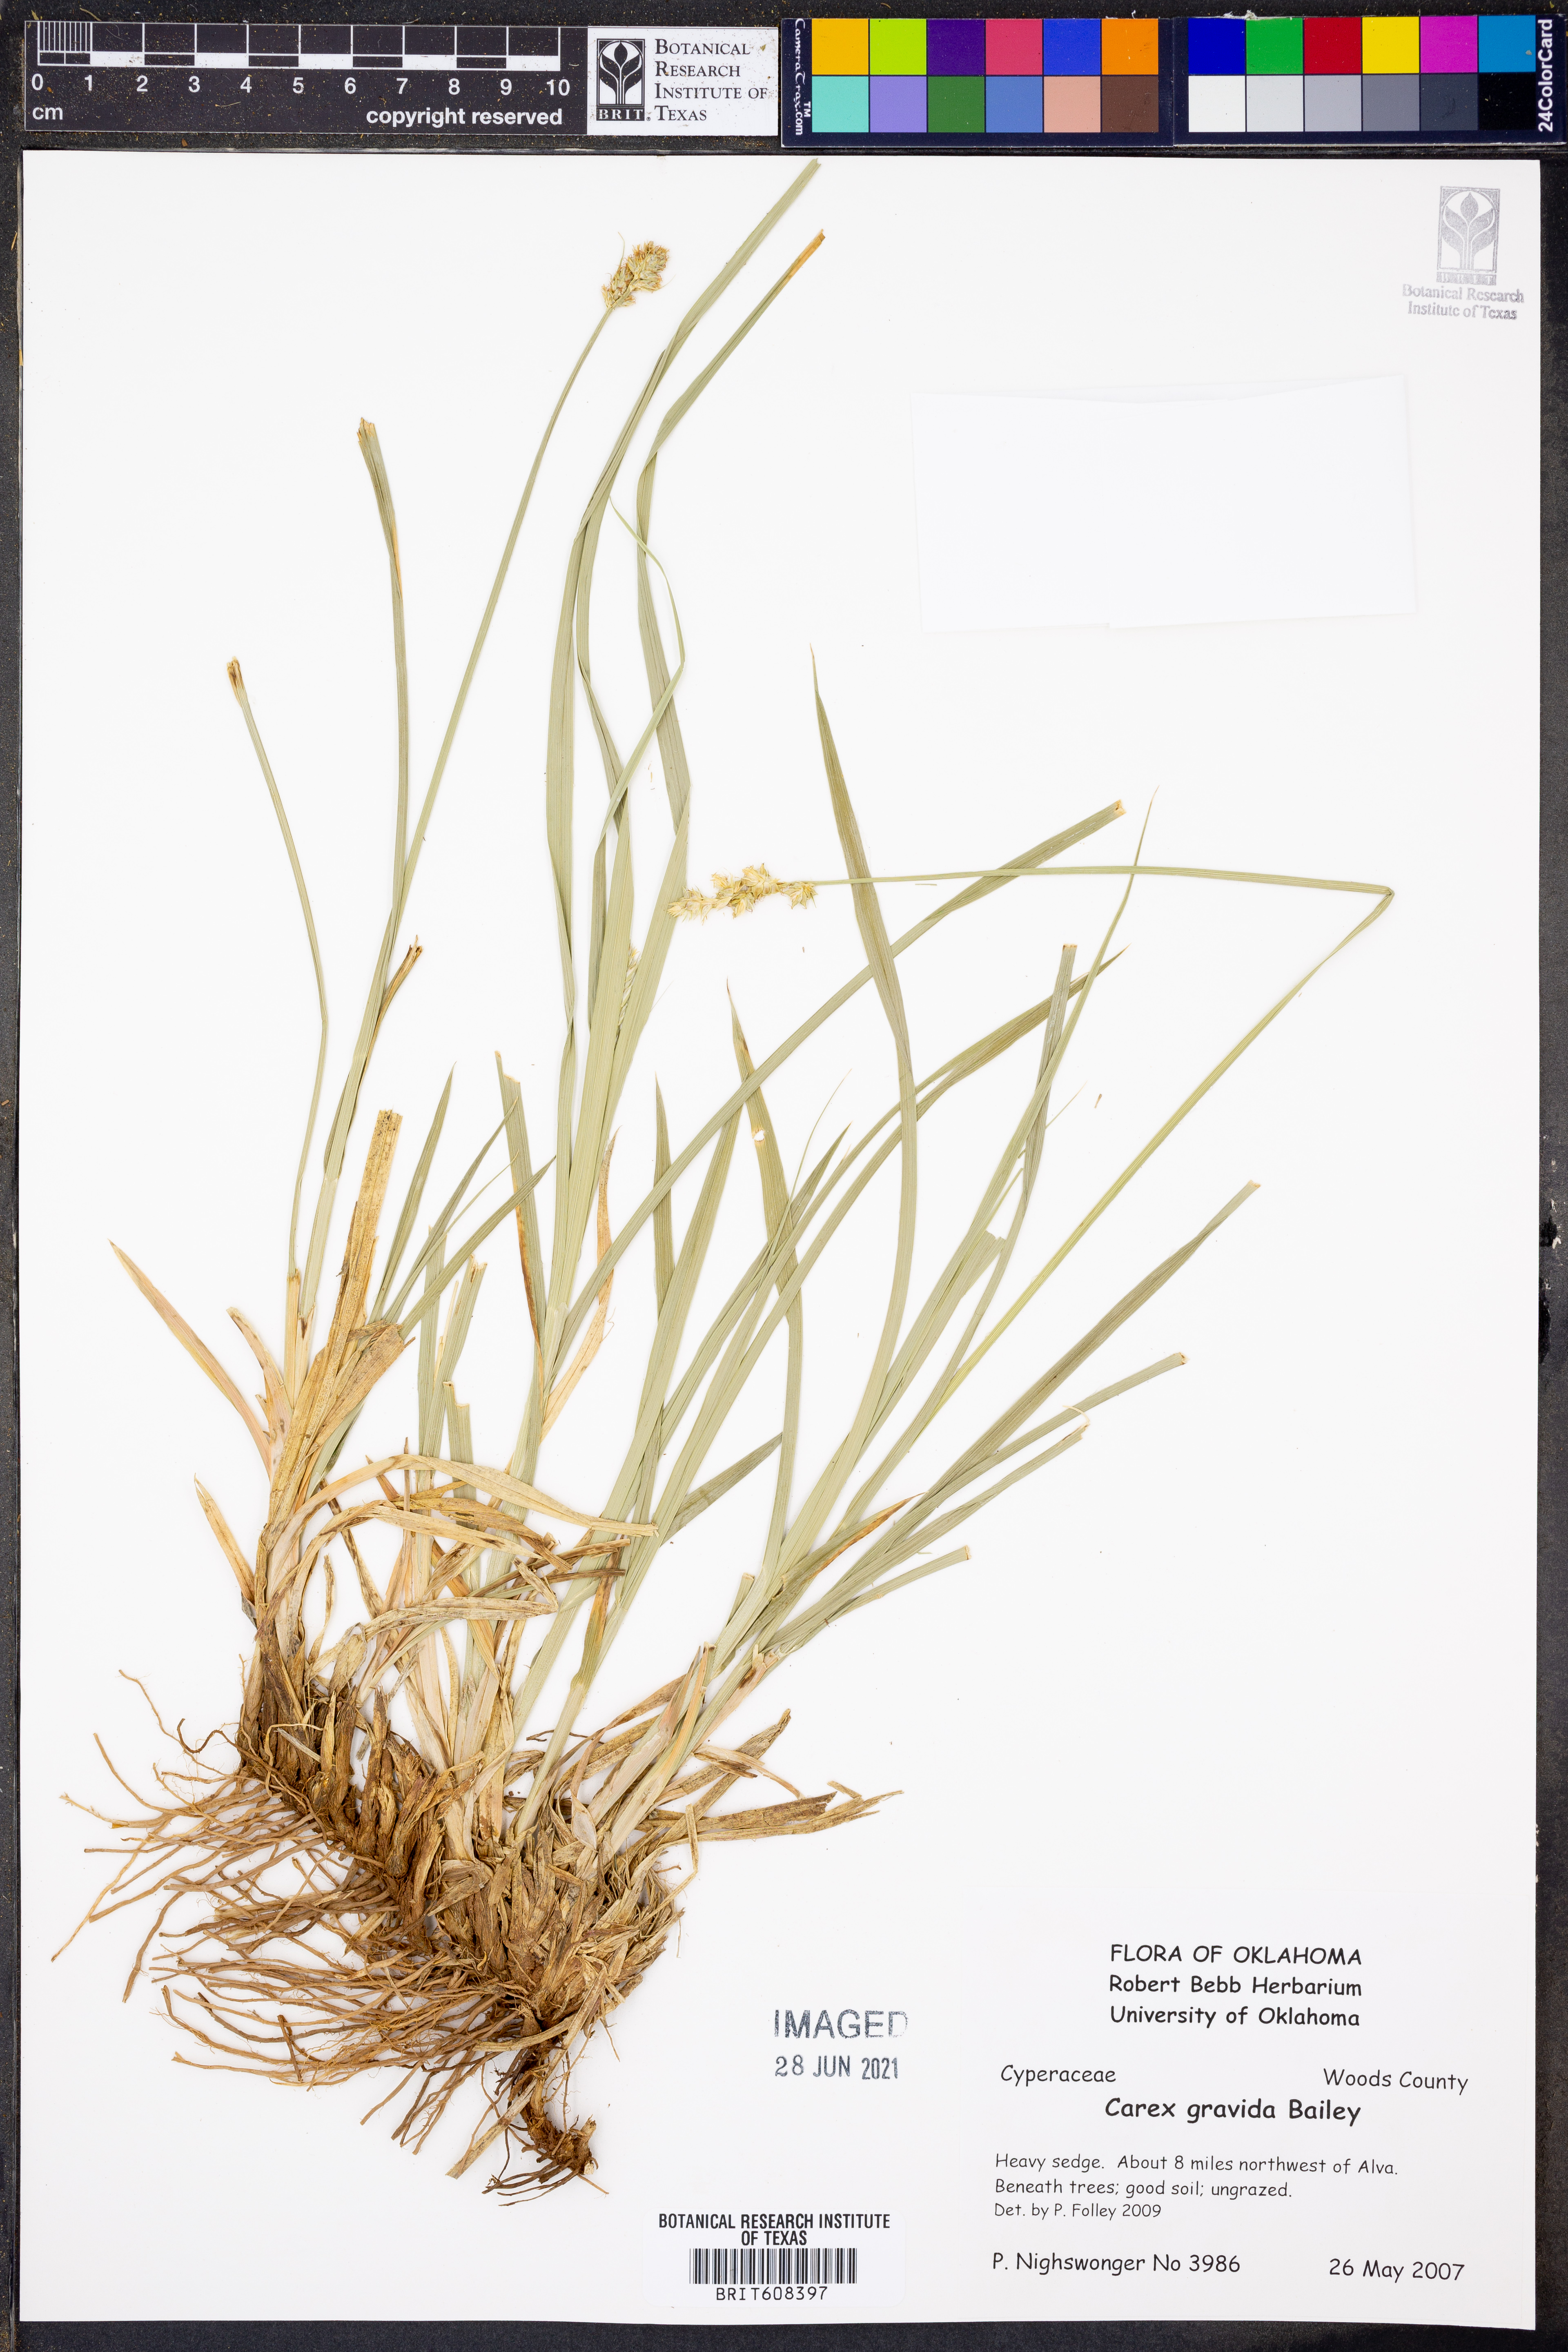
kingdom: Plantae
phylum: Tracheophyta
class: Liliopsida
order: Poales
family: Cyperaceae
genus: Carex
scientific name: Carex gravida
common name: Heavy sedge
